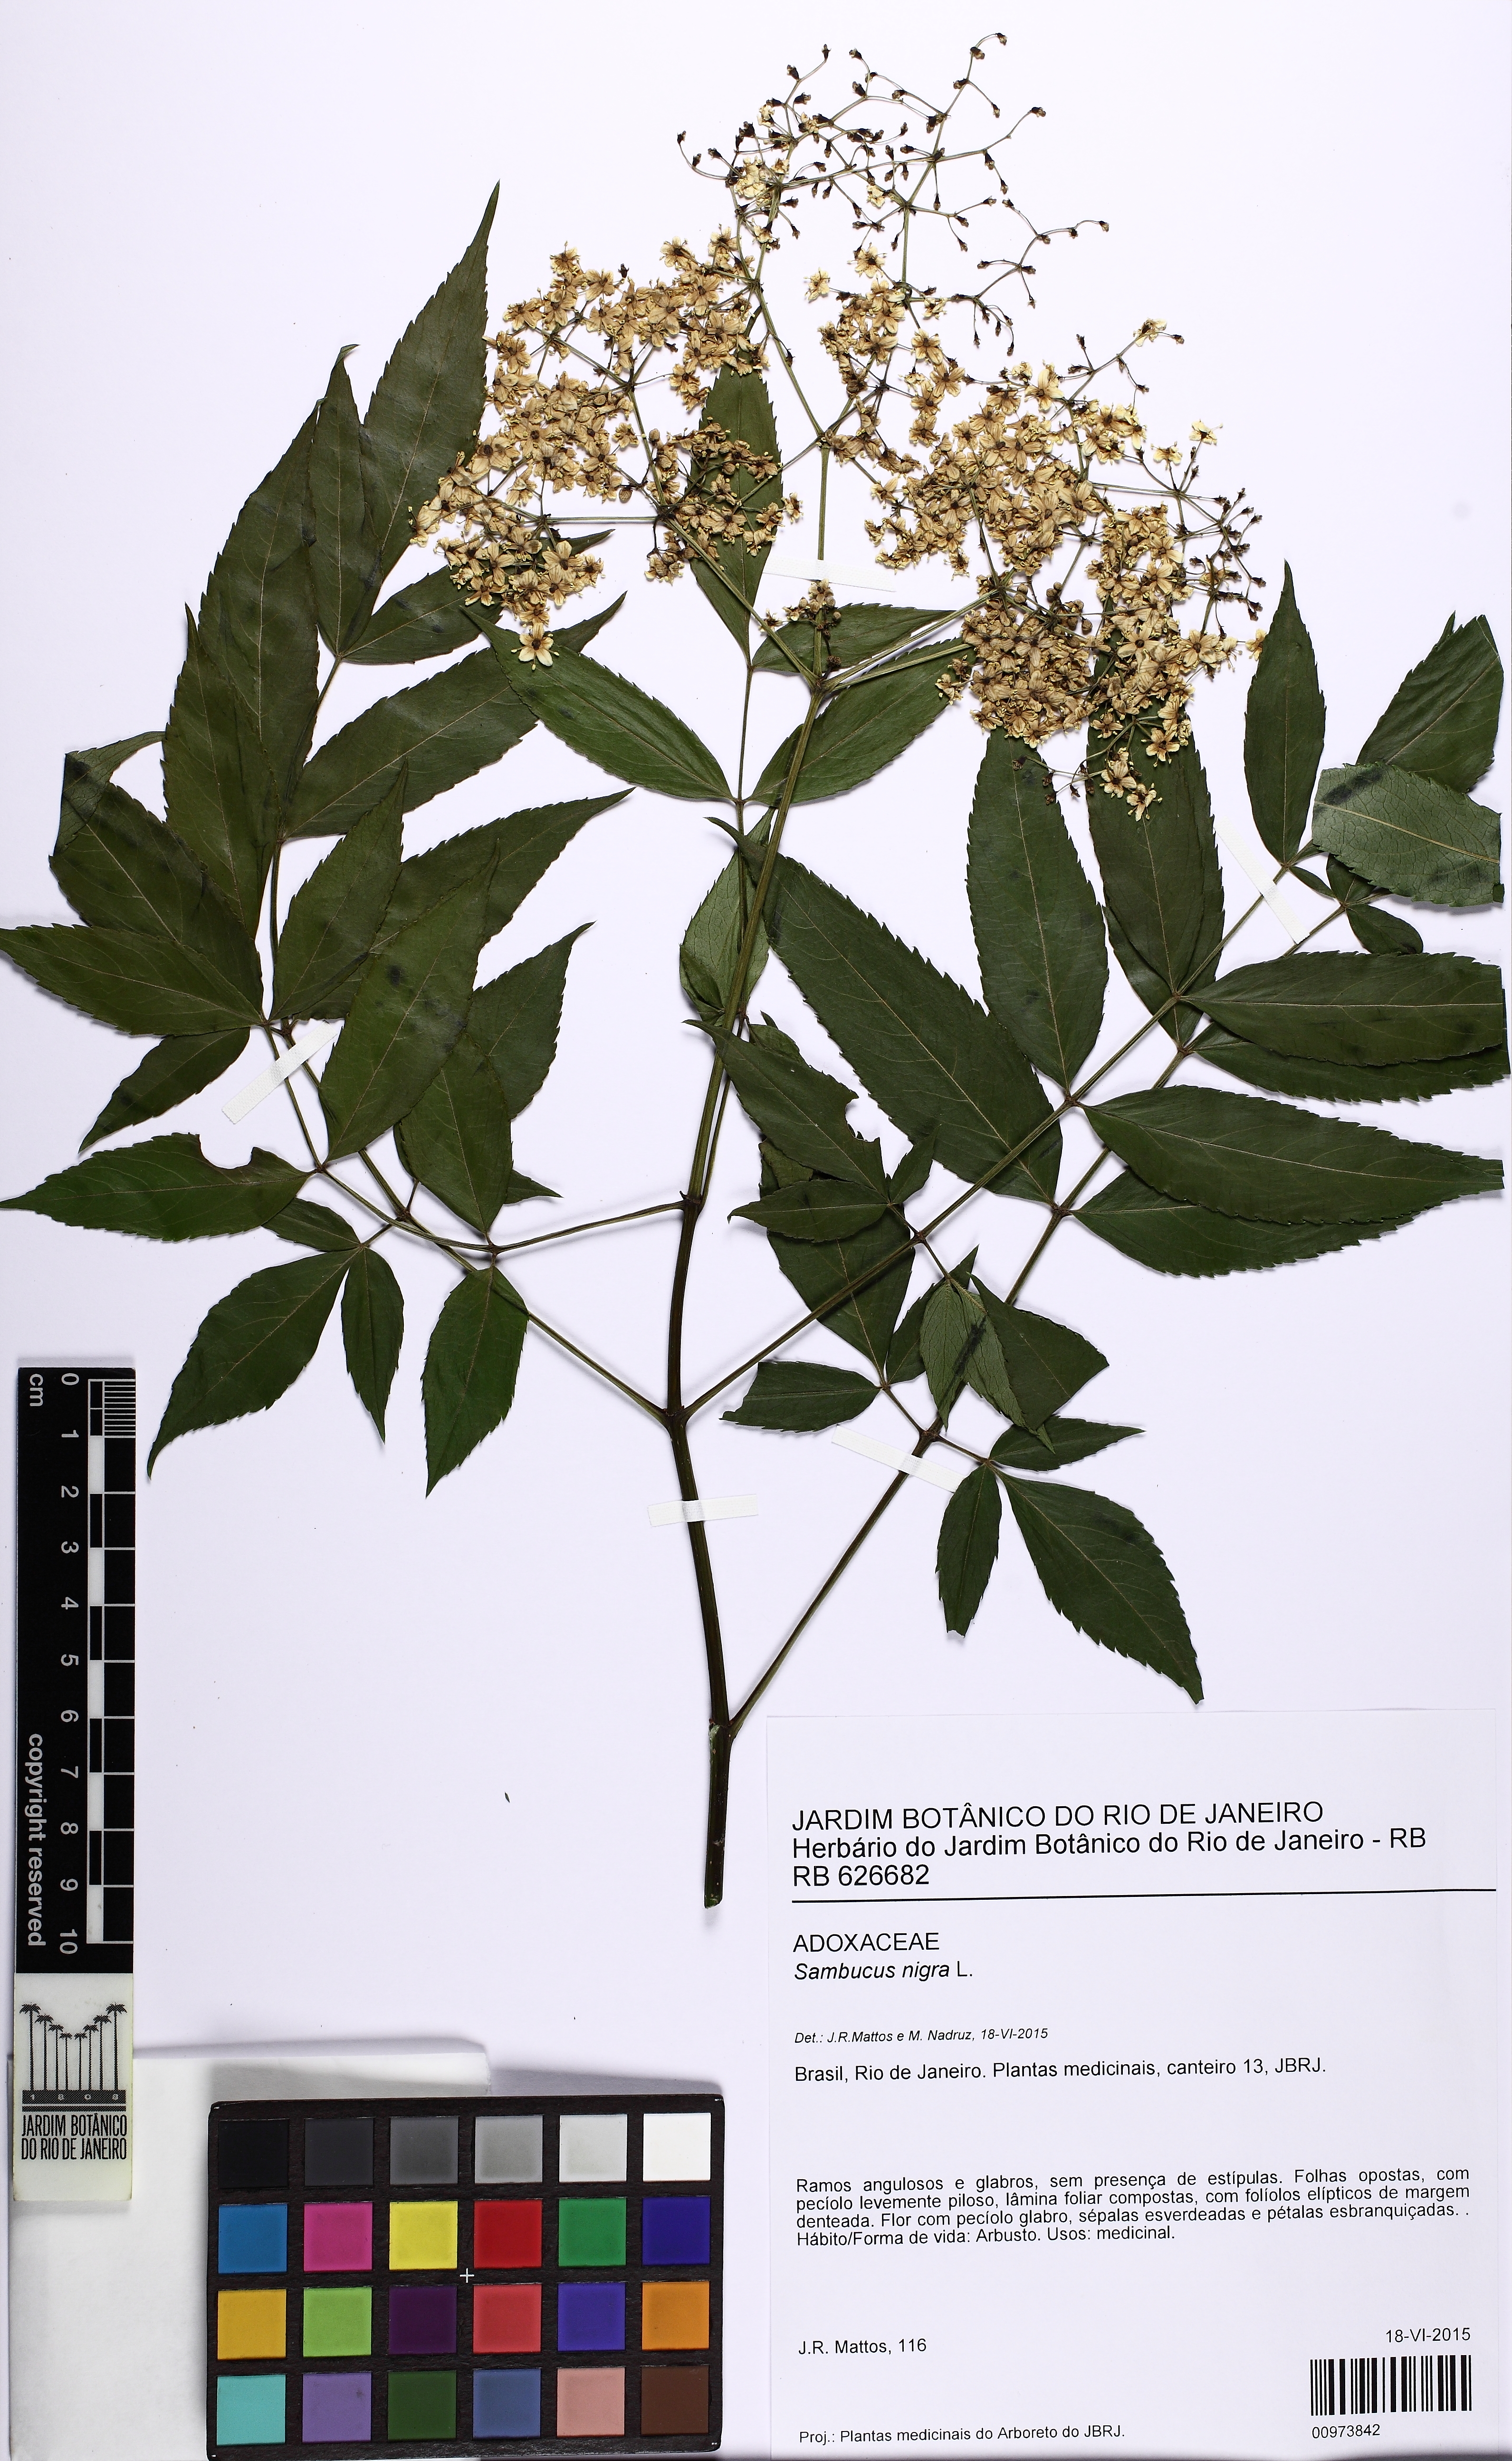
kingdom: Plantae
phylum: Tracheophyta
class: Magnoliopsida
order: Dipsacales
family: Viburnaceae
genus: Sambucus
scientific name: Sambucus nigra
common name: Elder
